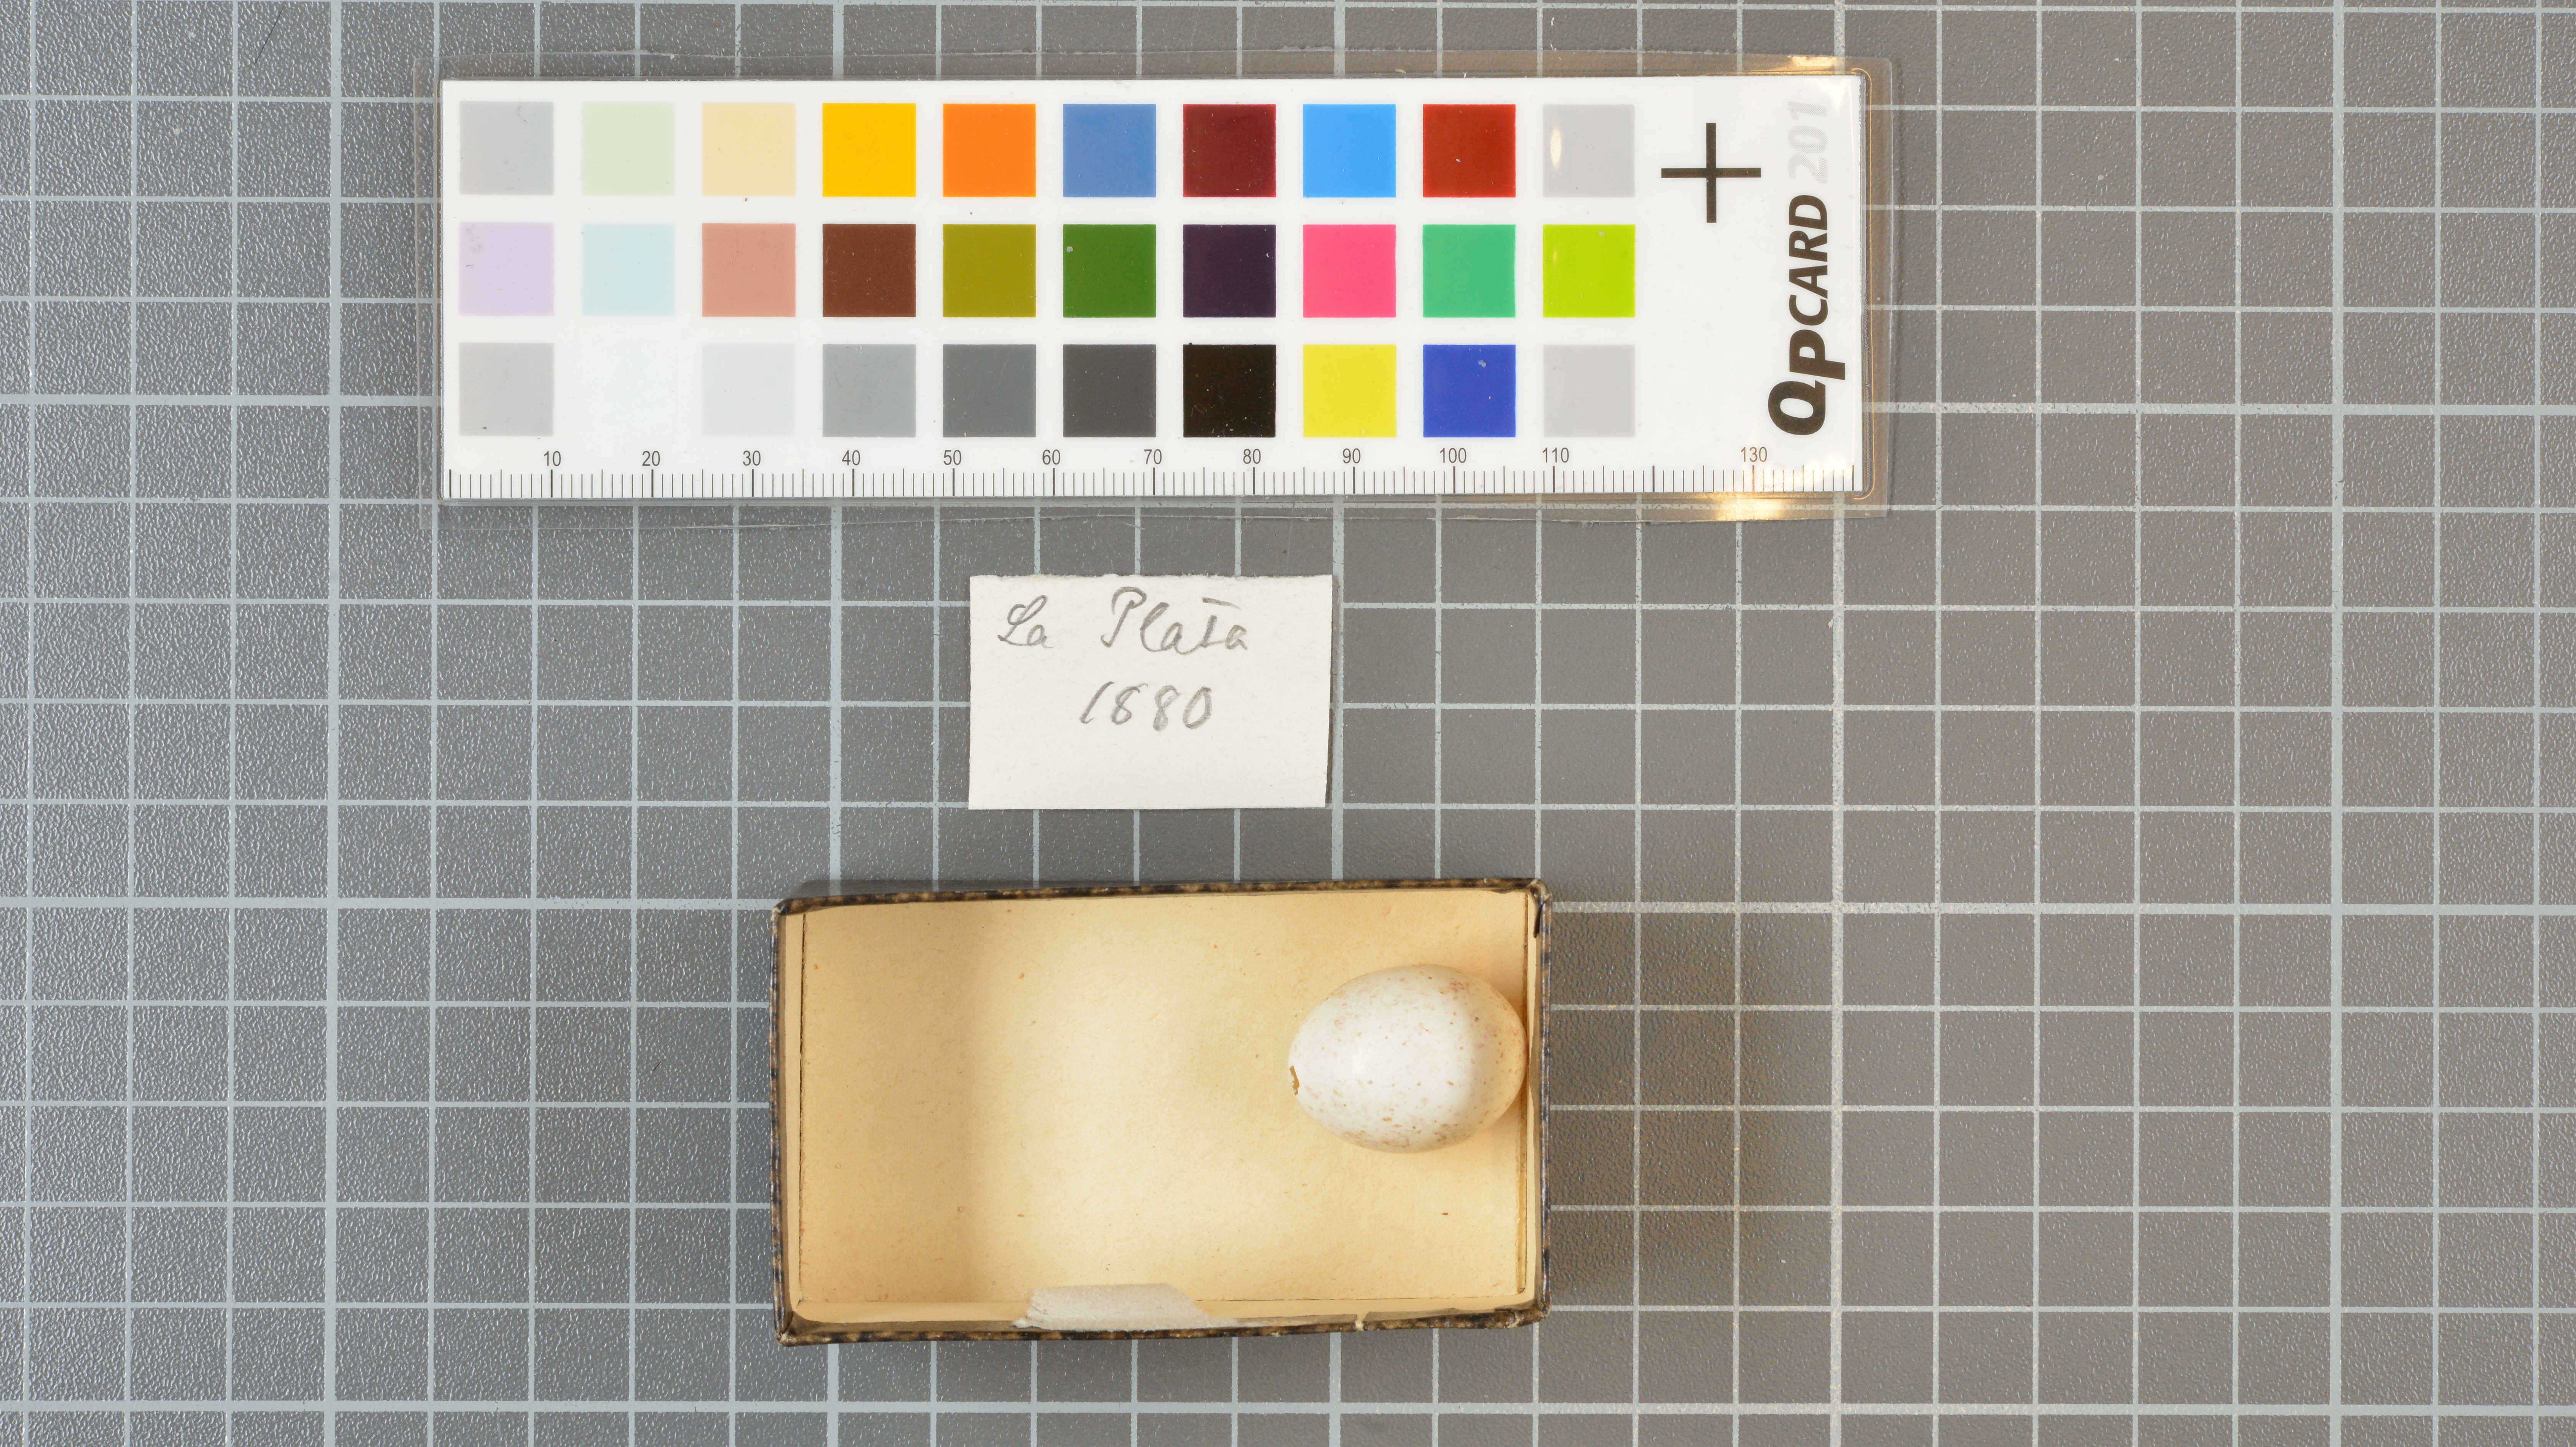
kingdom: Animalia
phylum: Chordata
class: Aves
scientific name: Aves
